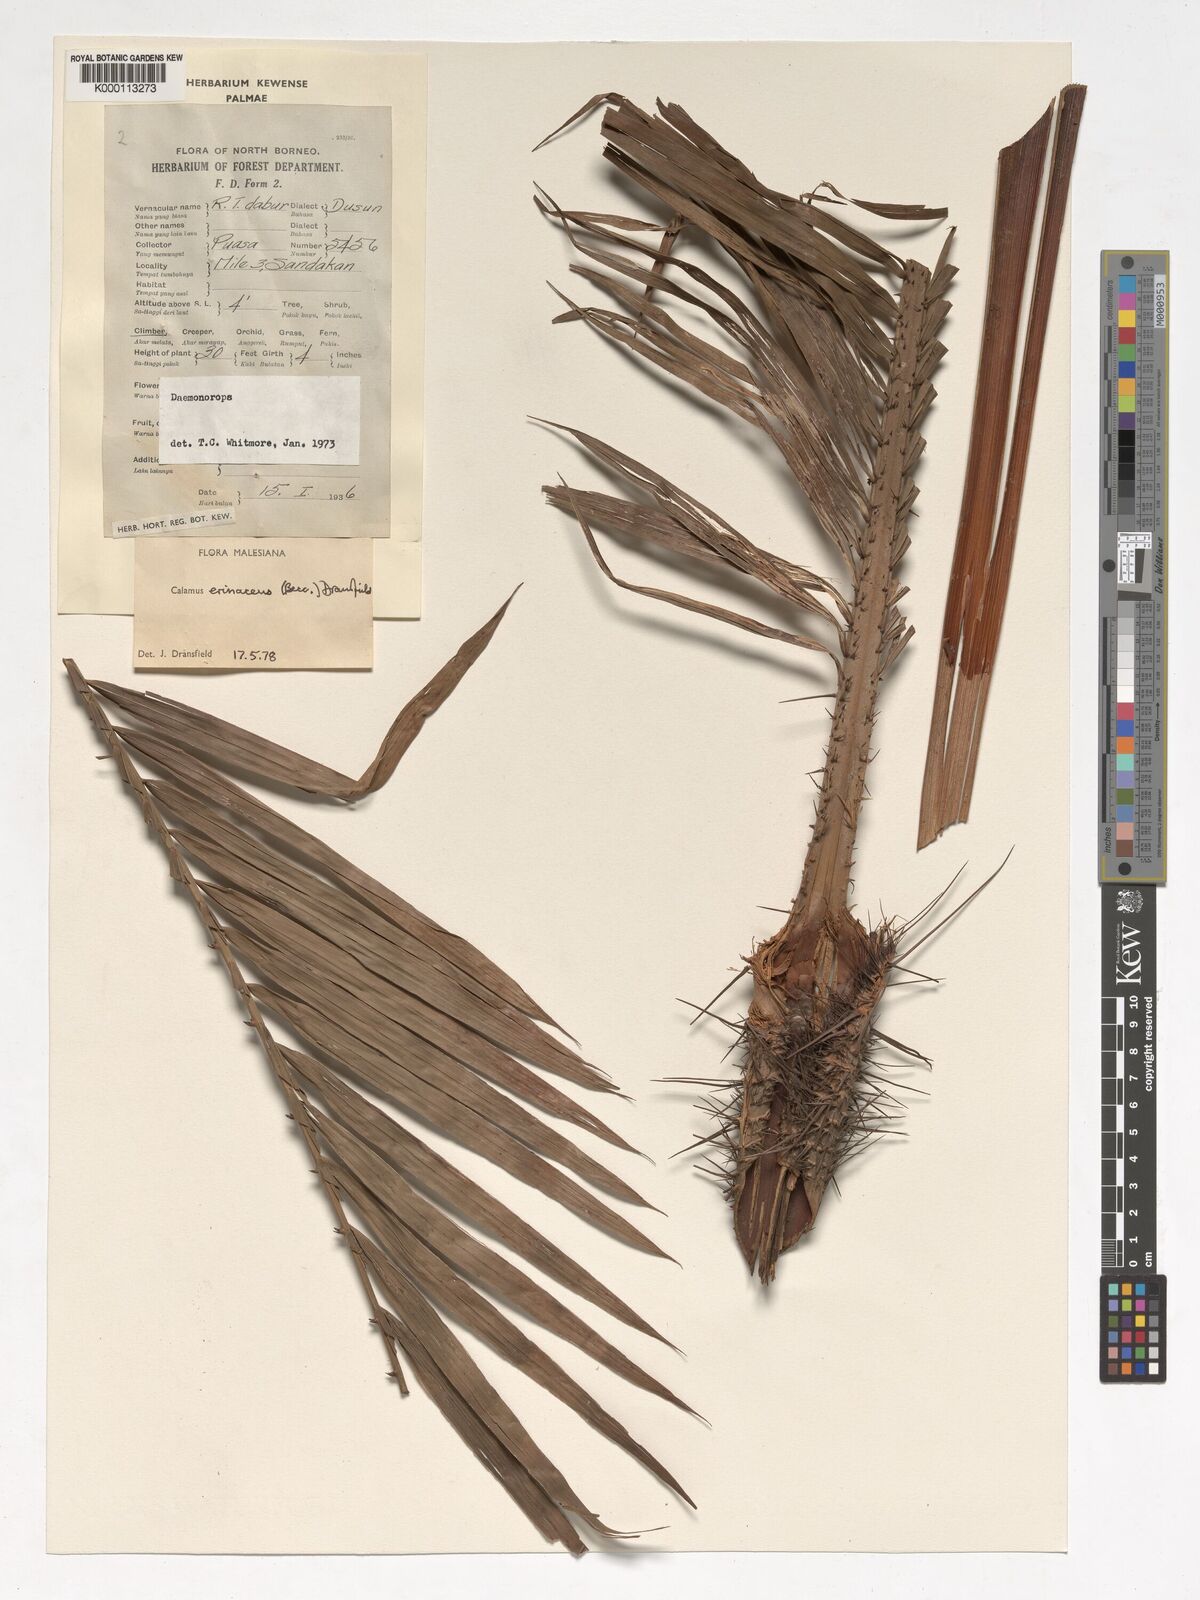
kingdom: Plantae
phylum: Tracheophyta
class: Liliopsida
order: Arecales
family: Arecaceae
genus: Calamus
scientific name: Calamus
